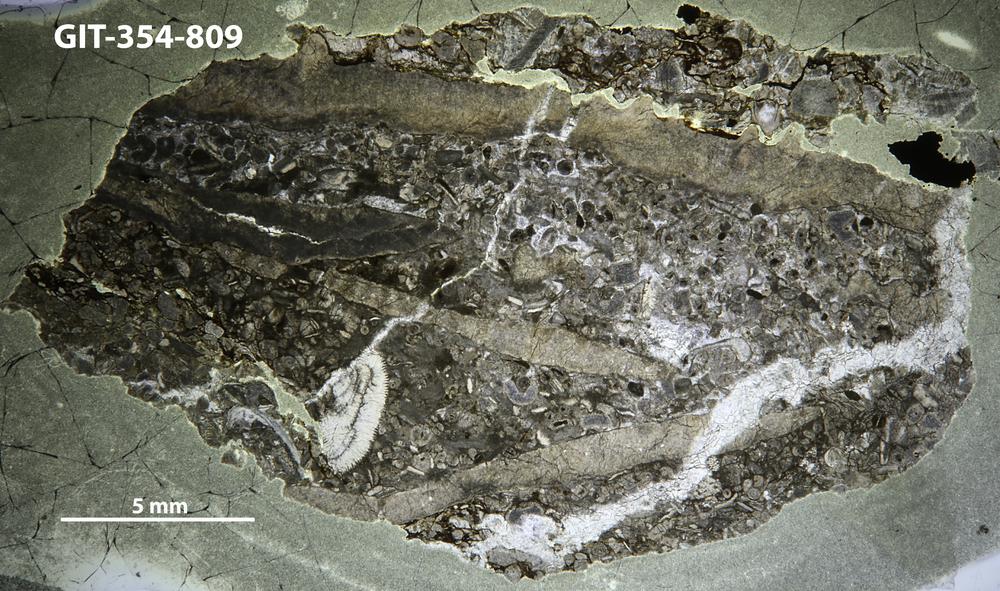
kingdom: Animalia
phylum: Porifera
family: Lophiostromatidae
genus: Lophiostroma
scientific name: Lophiostroma
